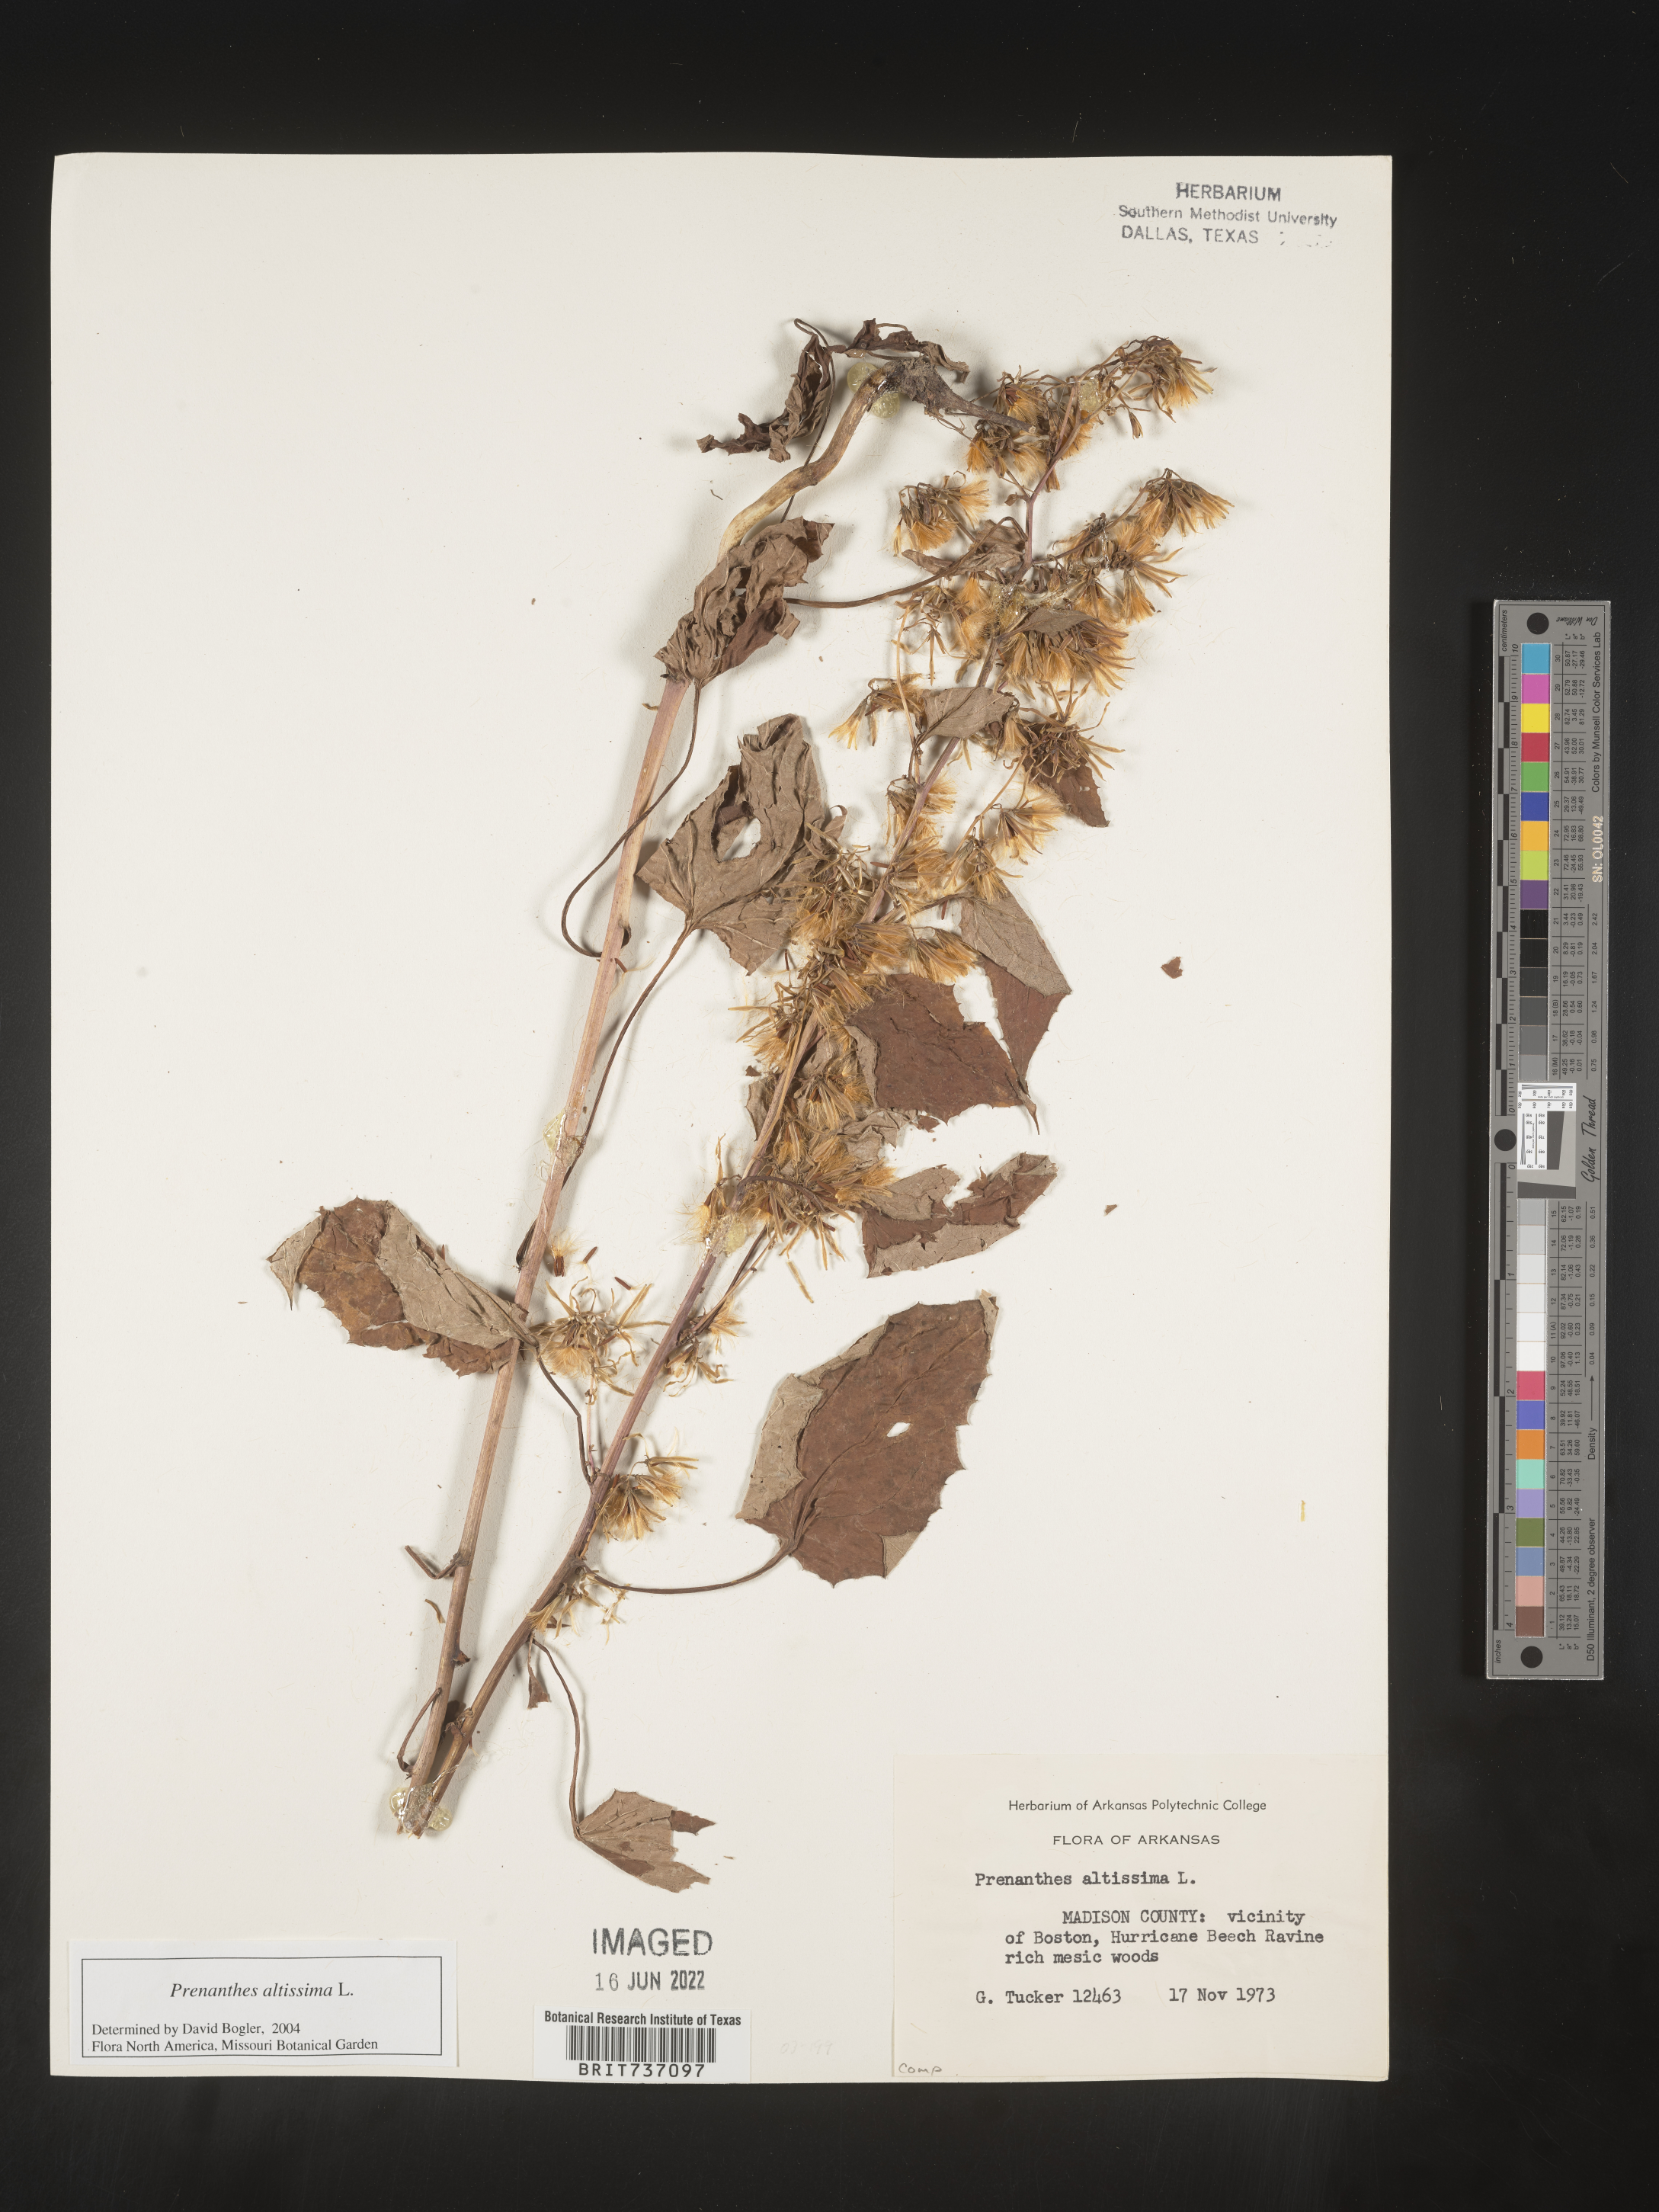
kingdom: Plantae
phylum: Tracheophyta
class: Magnoliopsida
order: Asterales
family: Asteraceae
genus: Lactuca
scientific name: Lactuca quercina
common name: Wild lettuce
